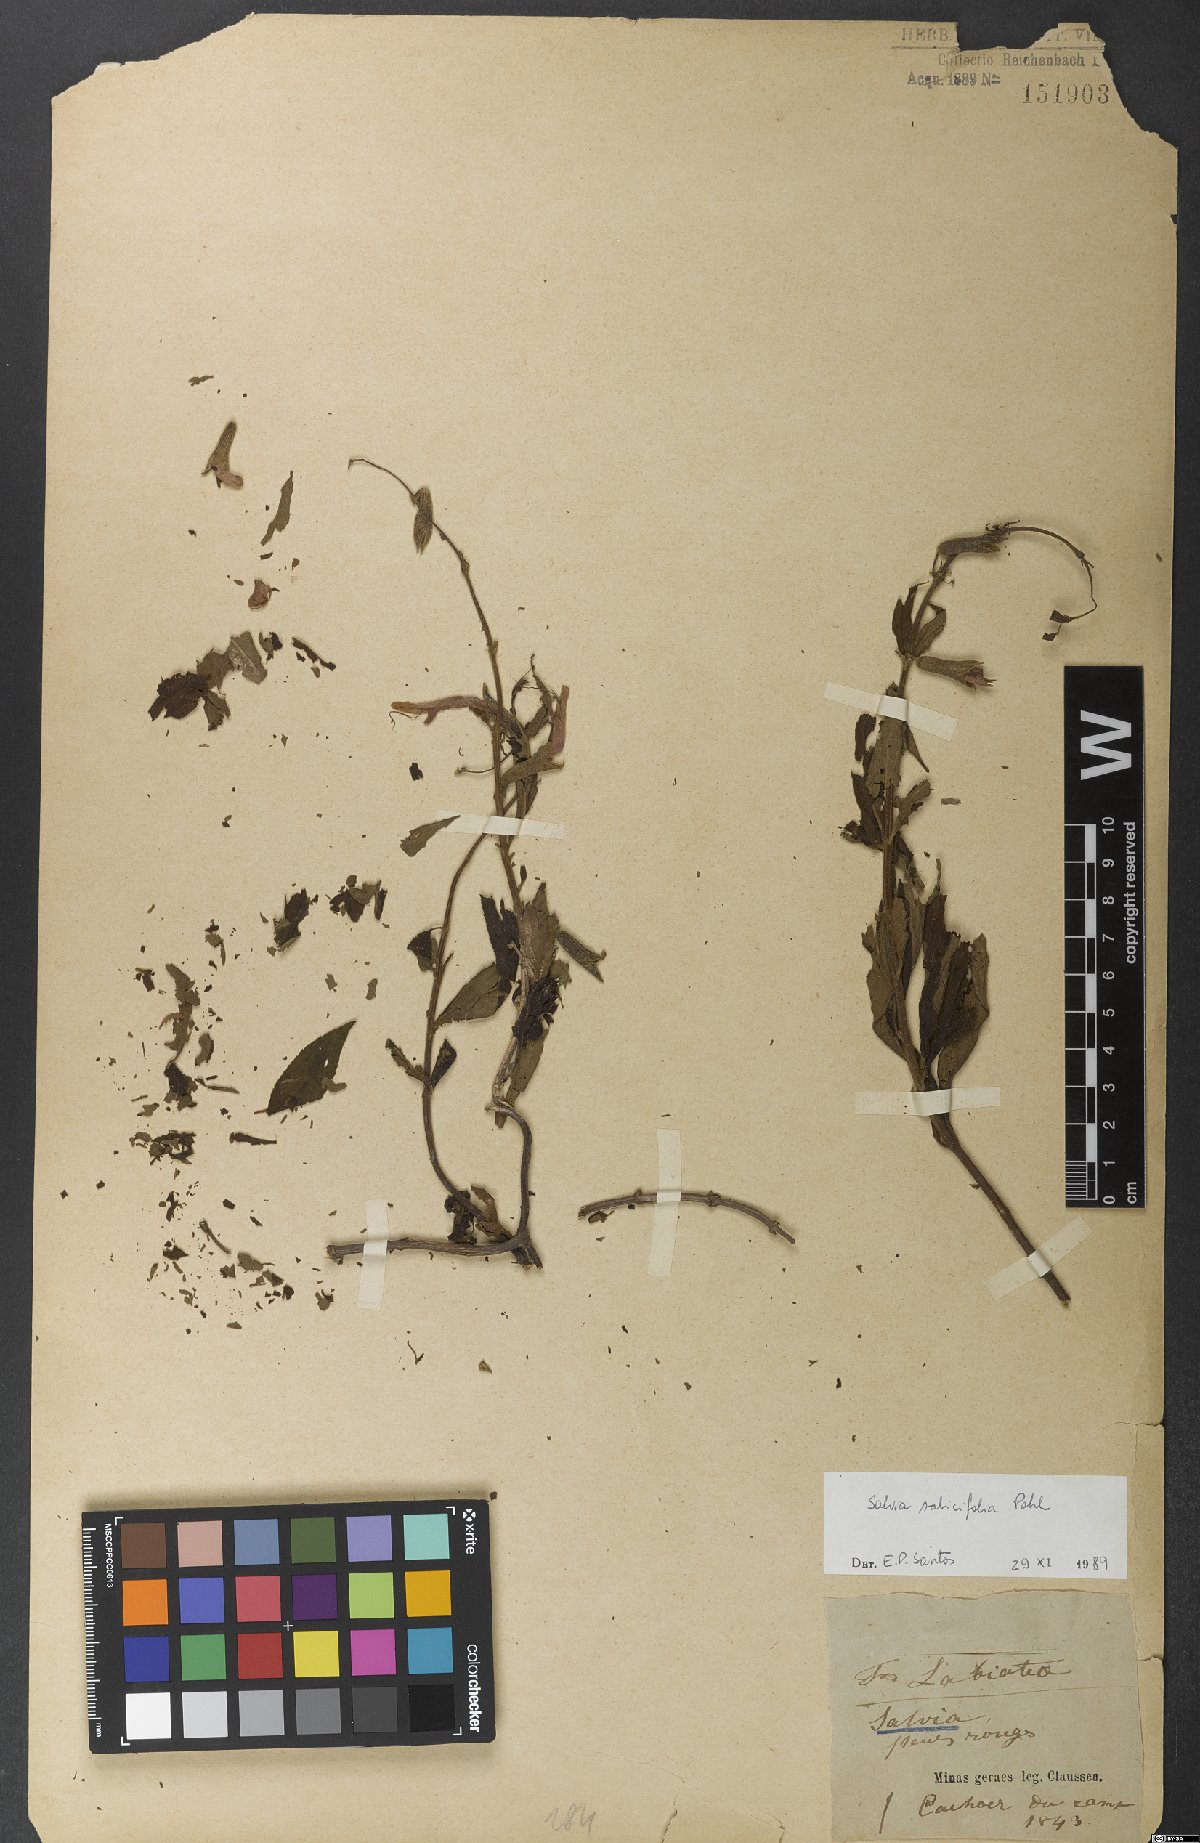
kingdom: Plantae
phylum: Tracheophyta
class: Magnoliopsida
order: Lamiales
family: Lamiaceae
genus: Salvia
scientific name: Salvia salicifolia
